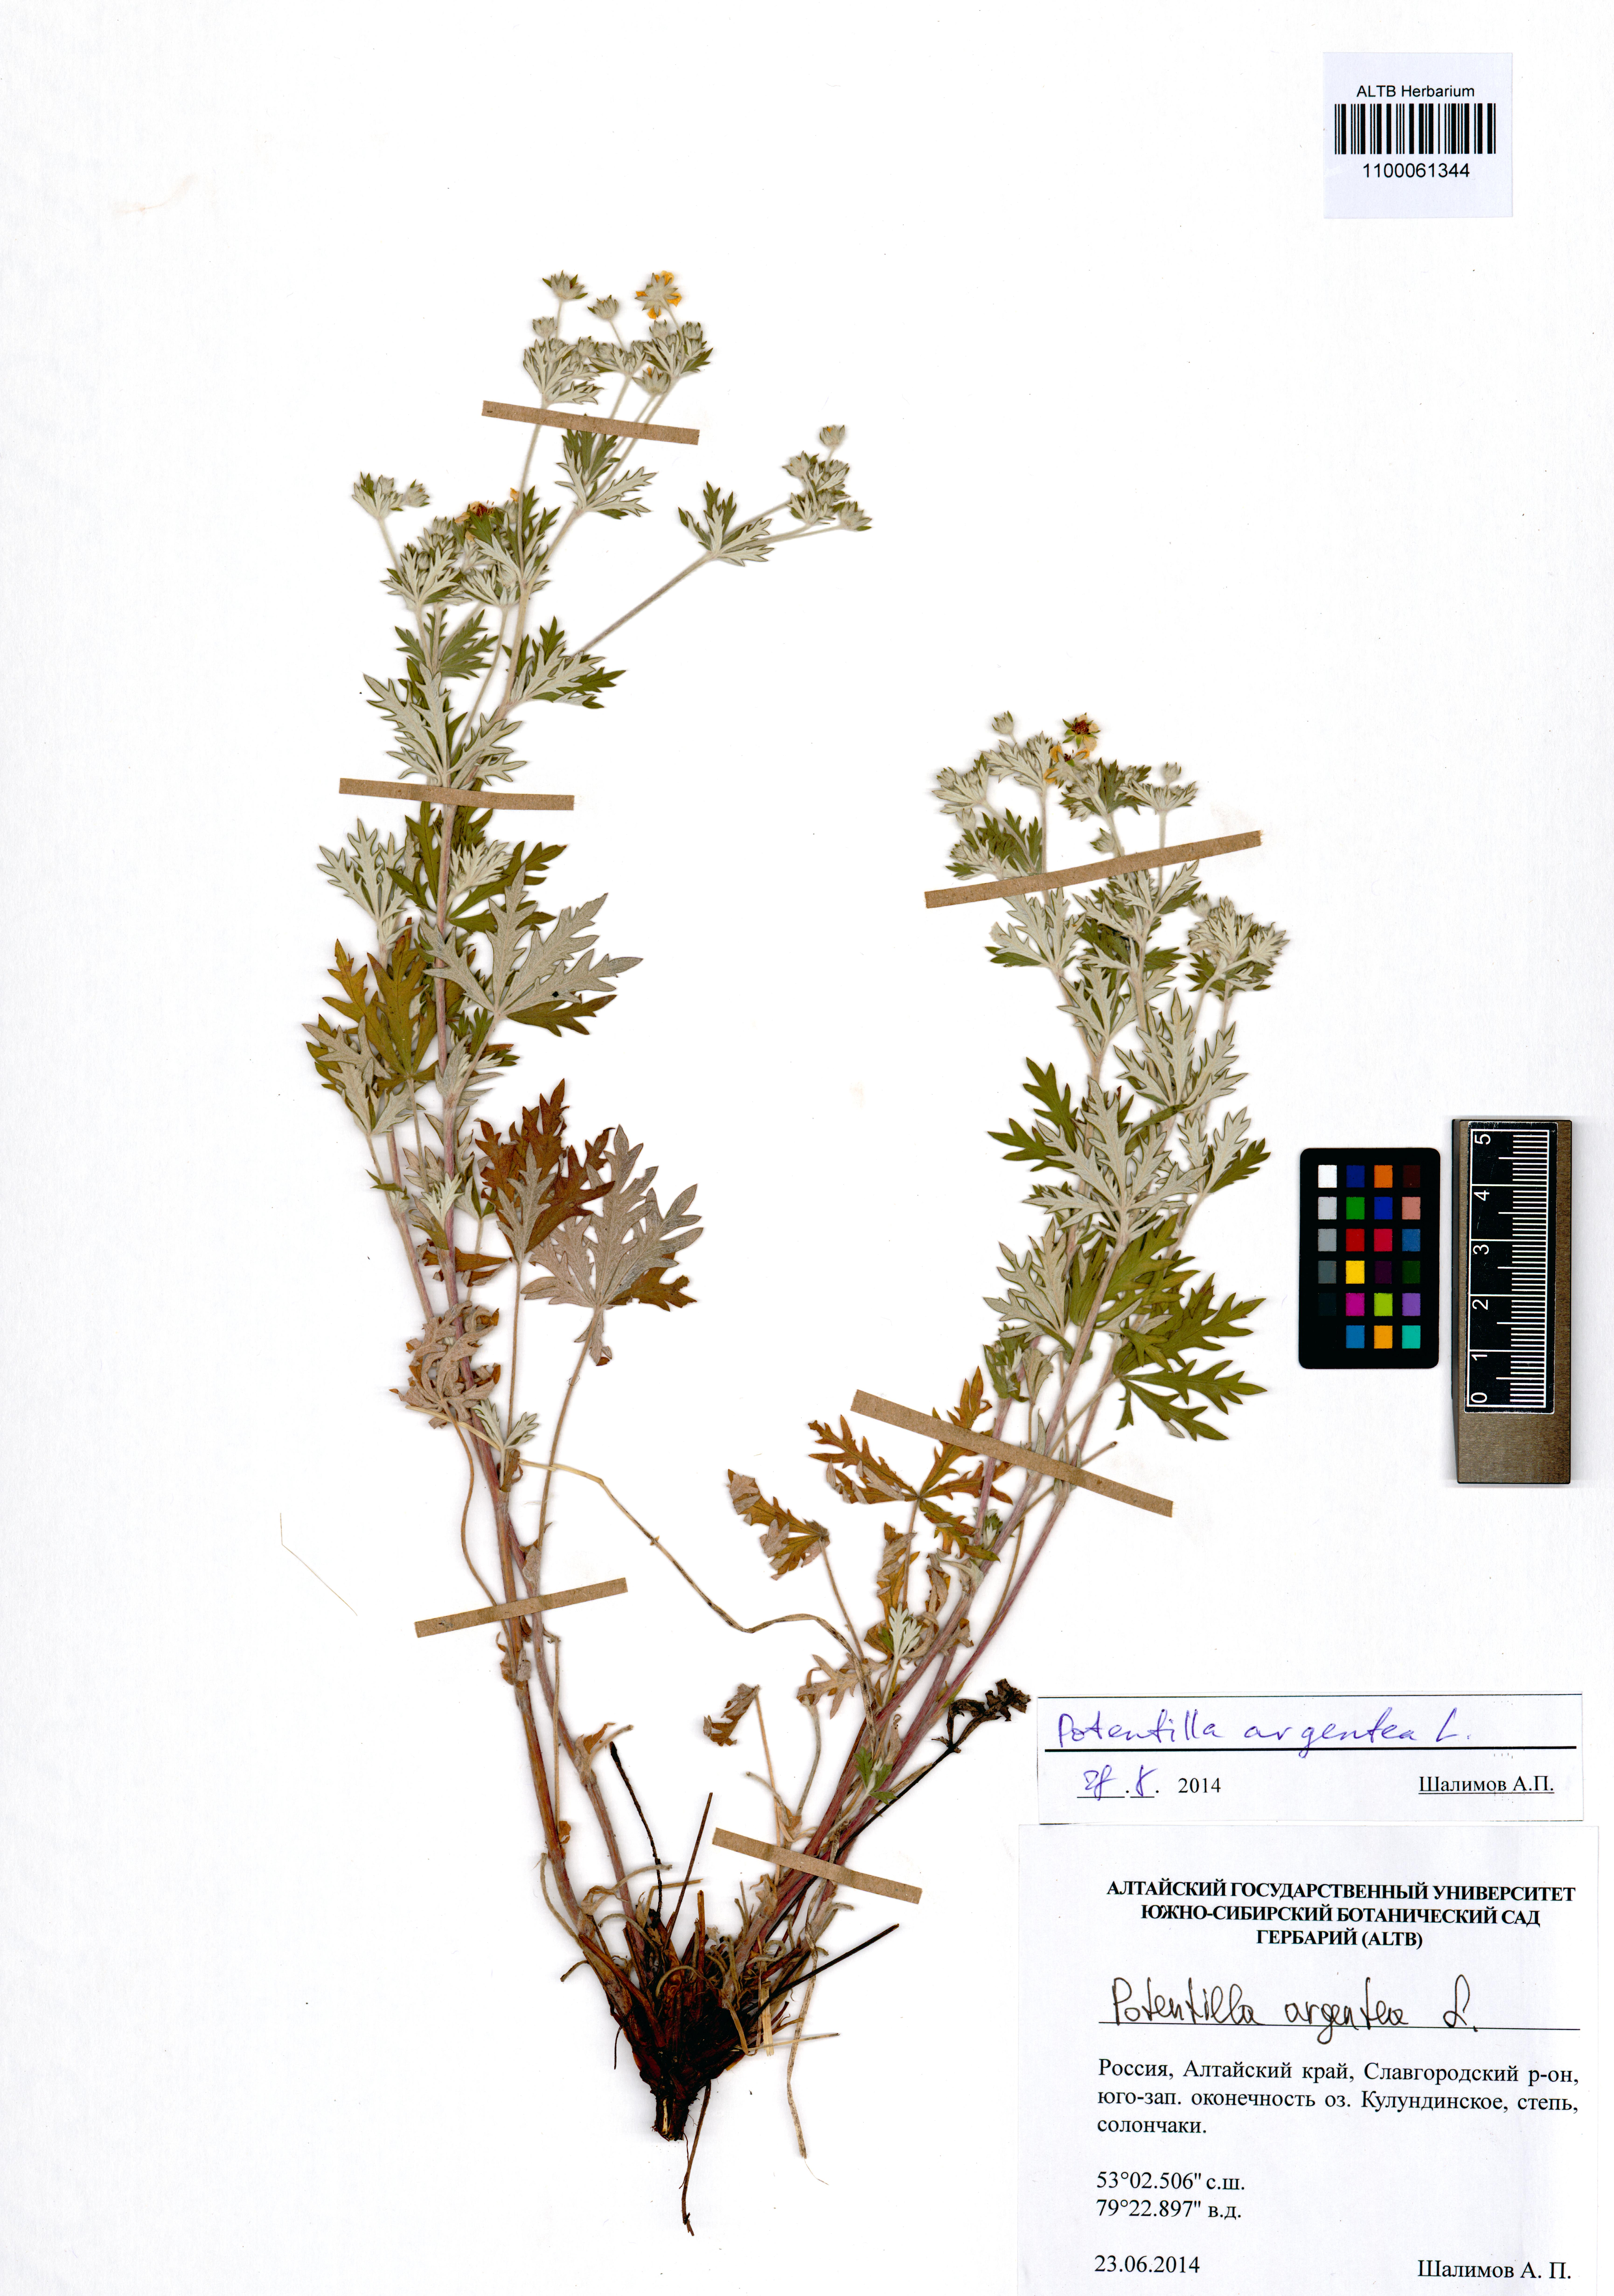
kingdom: Plantae
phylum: Tracheophyta
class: Magnoliopsida
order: Rosales
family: Rosaceae
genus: Potentilla
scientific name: Potentilla argentea
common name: Hoary cinquefoil
